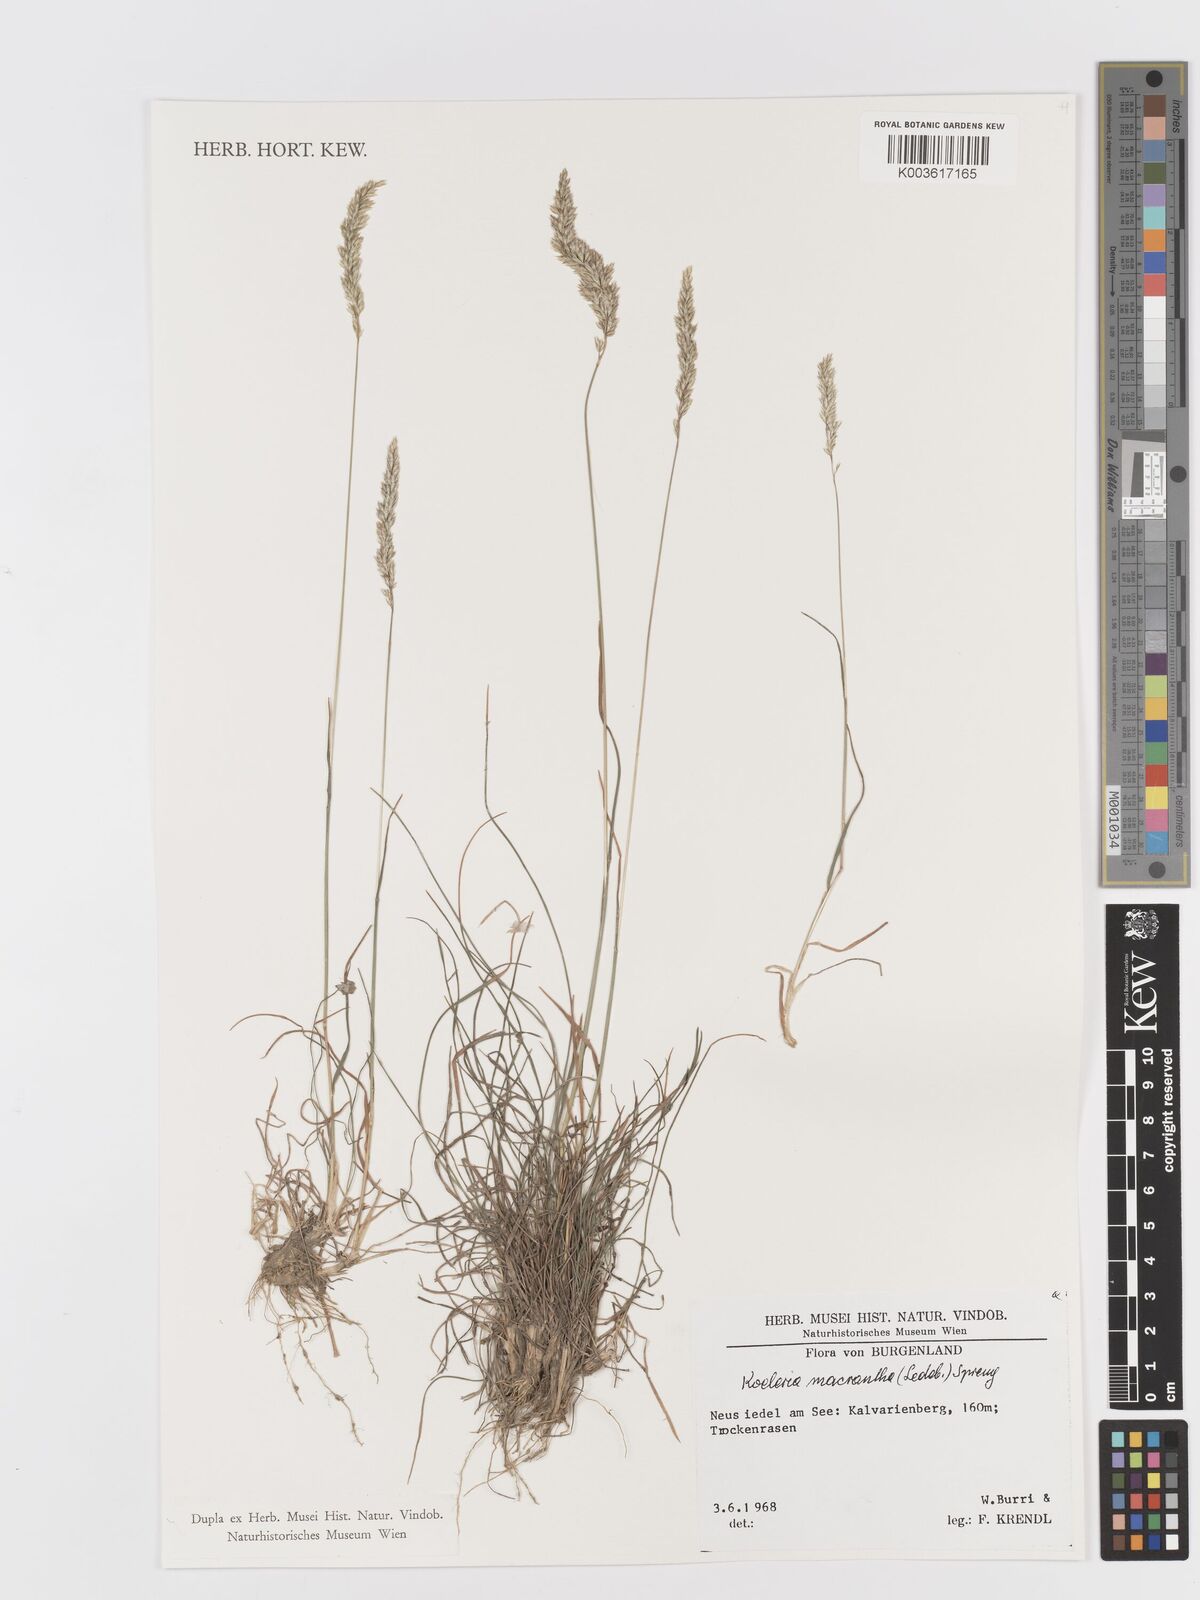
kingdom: Plantae
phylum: Tracheophyta
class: Liliopsida
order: Poales
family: Poaceae
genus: Koeleria
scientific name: Koeleria macrantha
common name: Crested hair-grass
